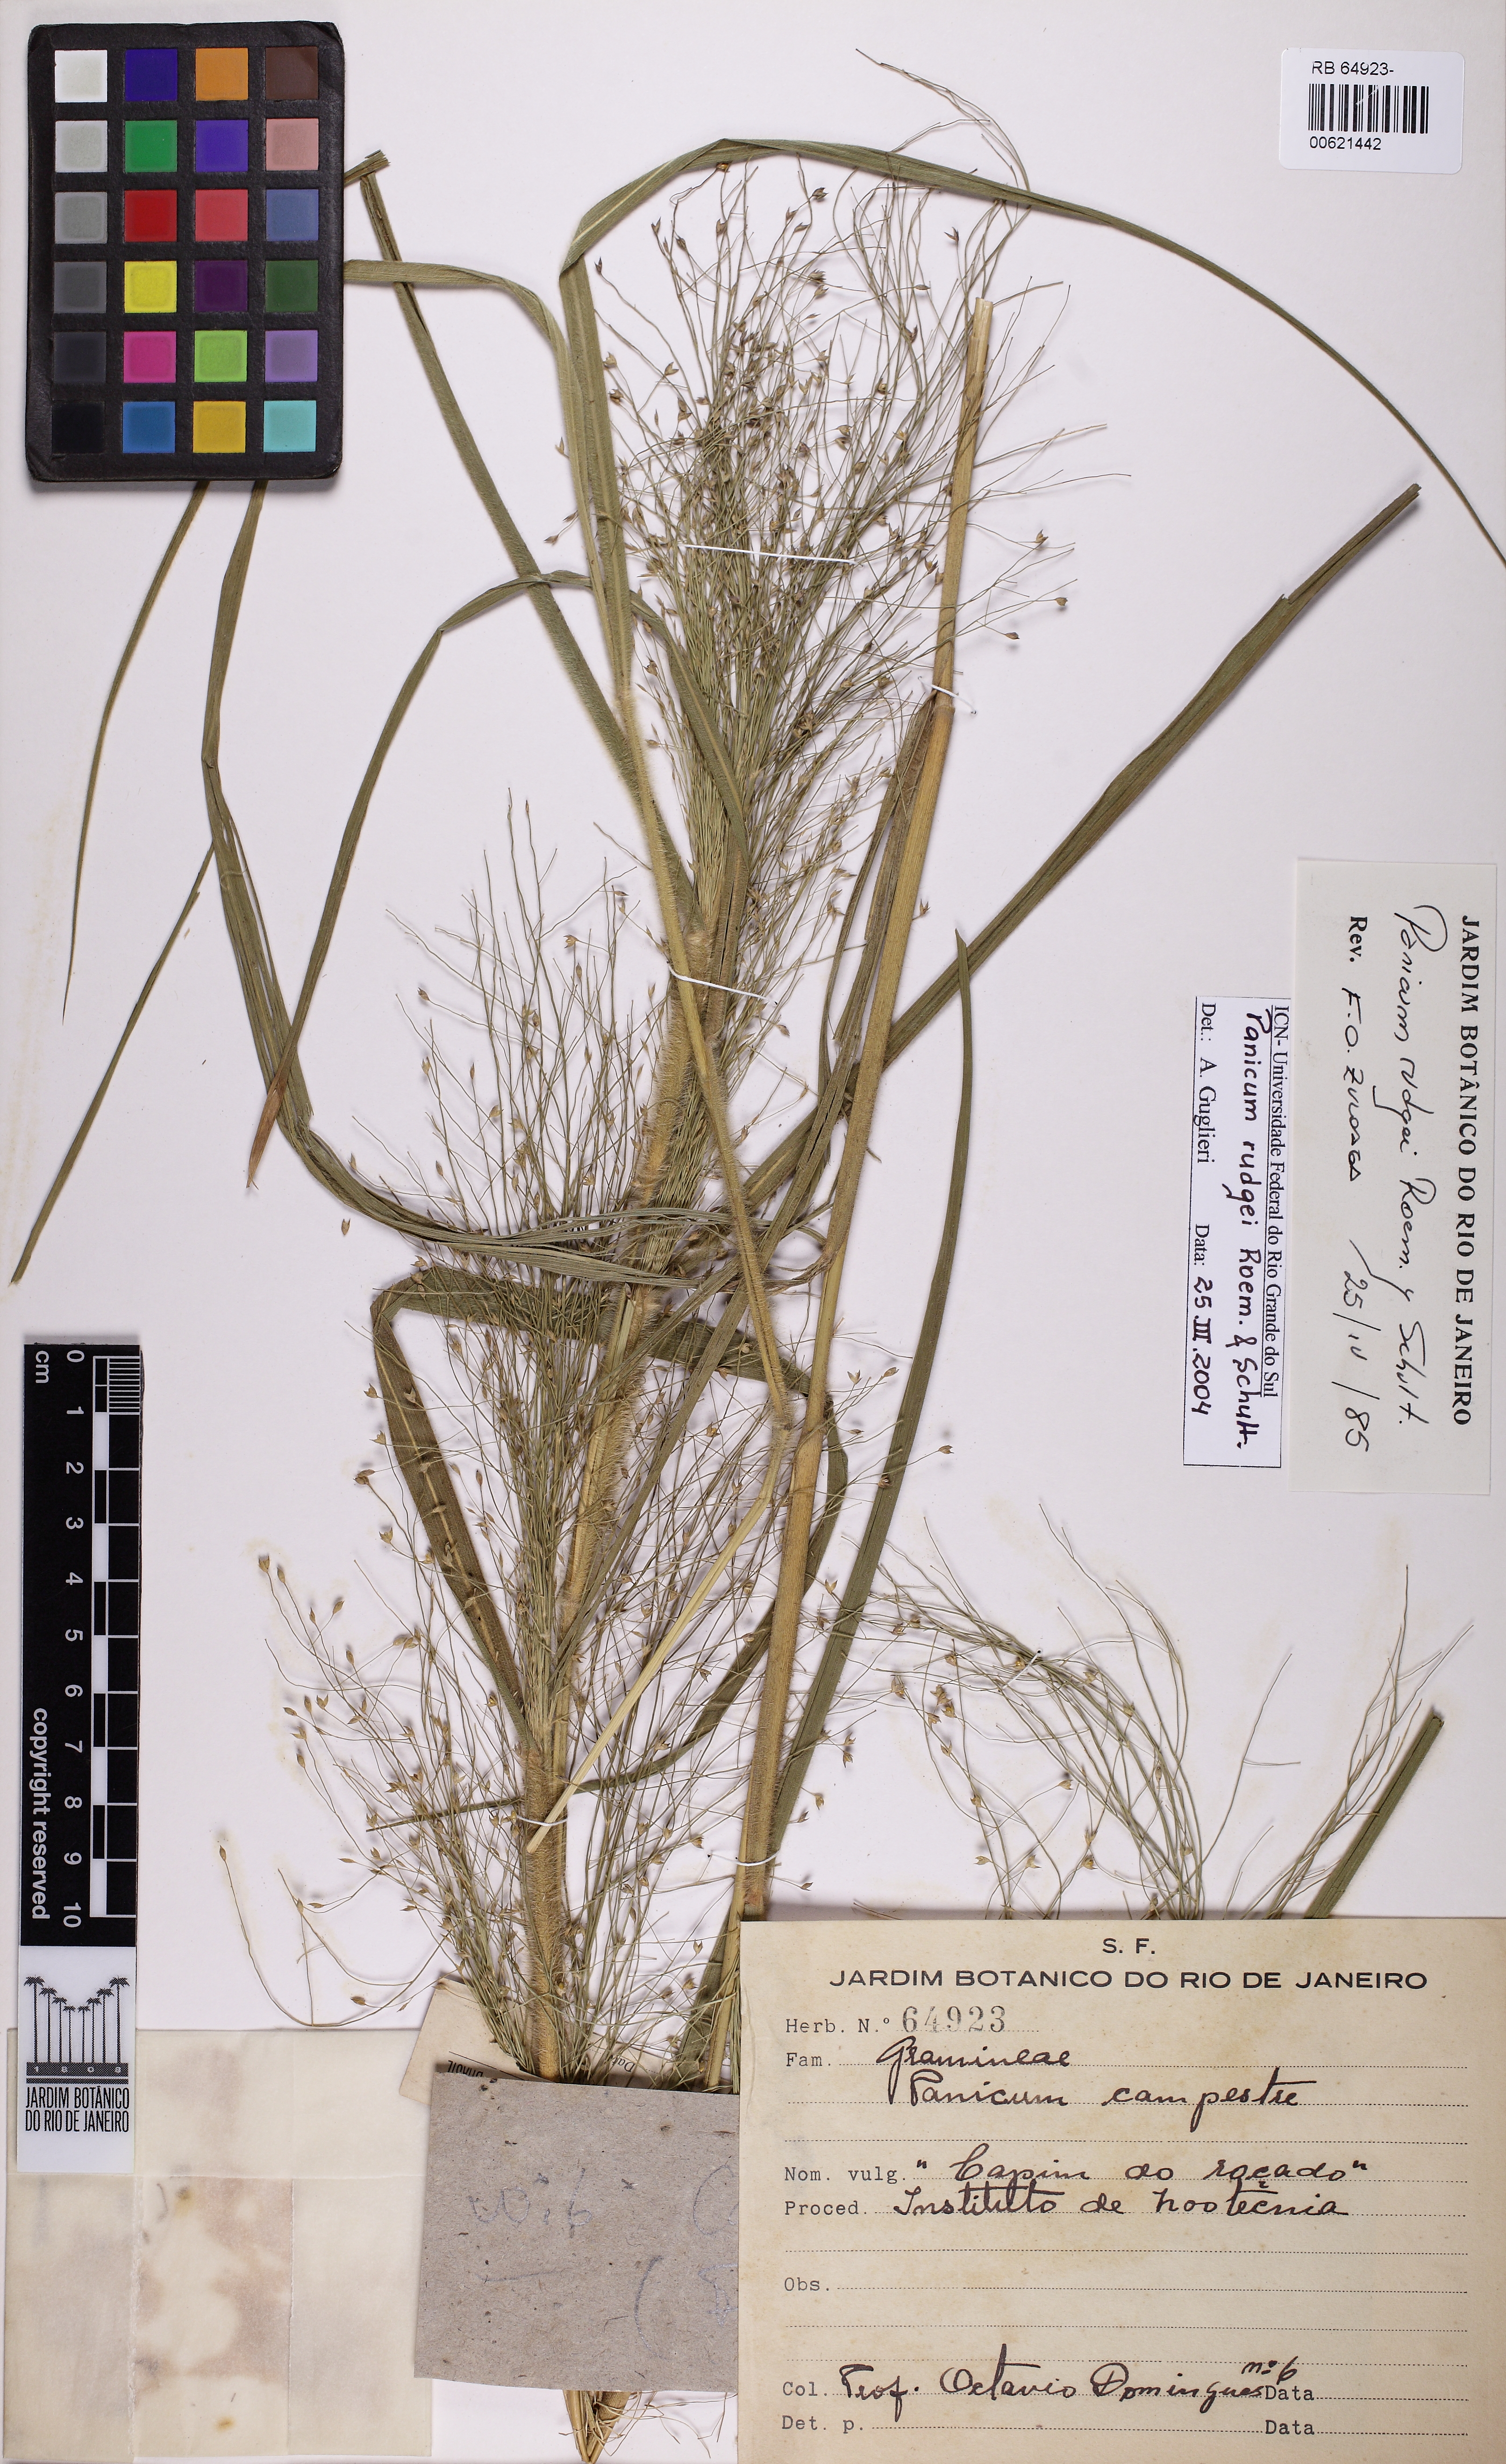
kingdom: Plantae
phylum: Tracheophyta
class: Liliopsida
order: Poales
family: Poaceae
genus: Panicum
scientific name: Panicum rudgei
